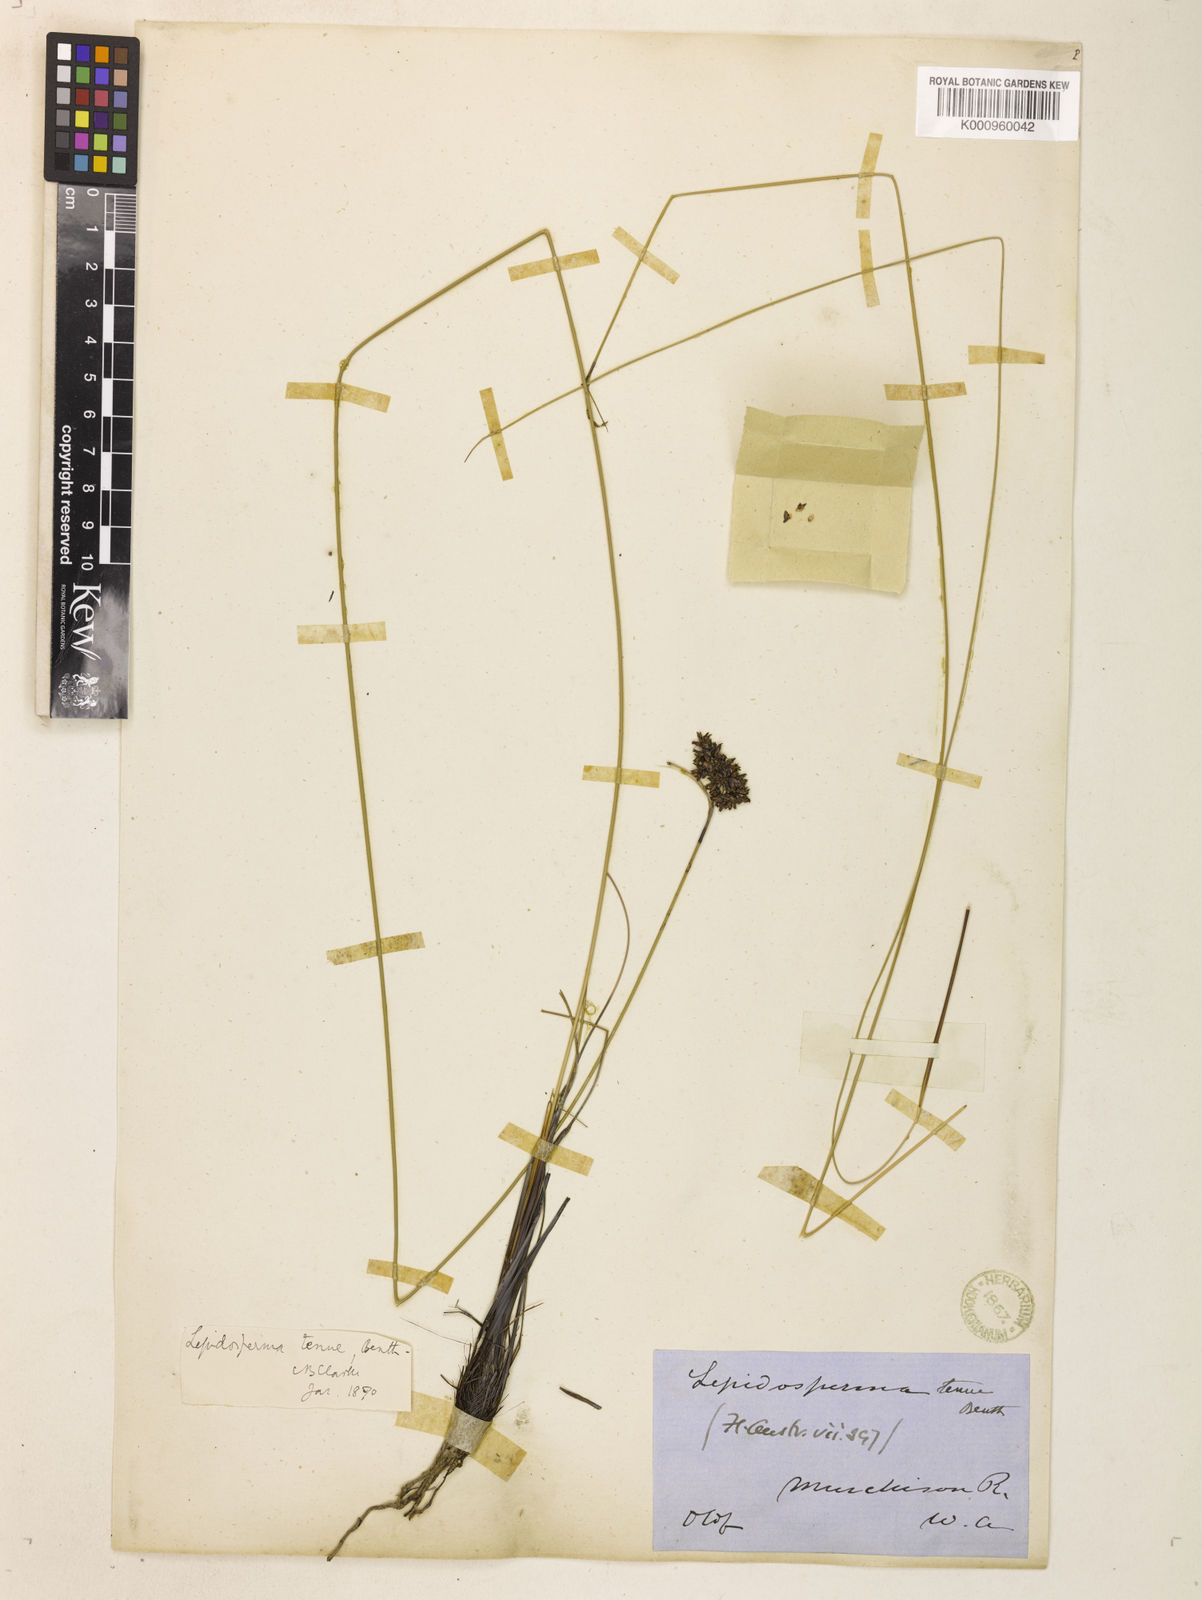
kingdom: Plantae
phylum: Tracheophyta
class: Liliopsida
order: Poales
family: Cyperaceae
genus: Lepidosperma
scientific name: Lepidosperma tenue
